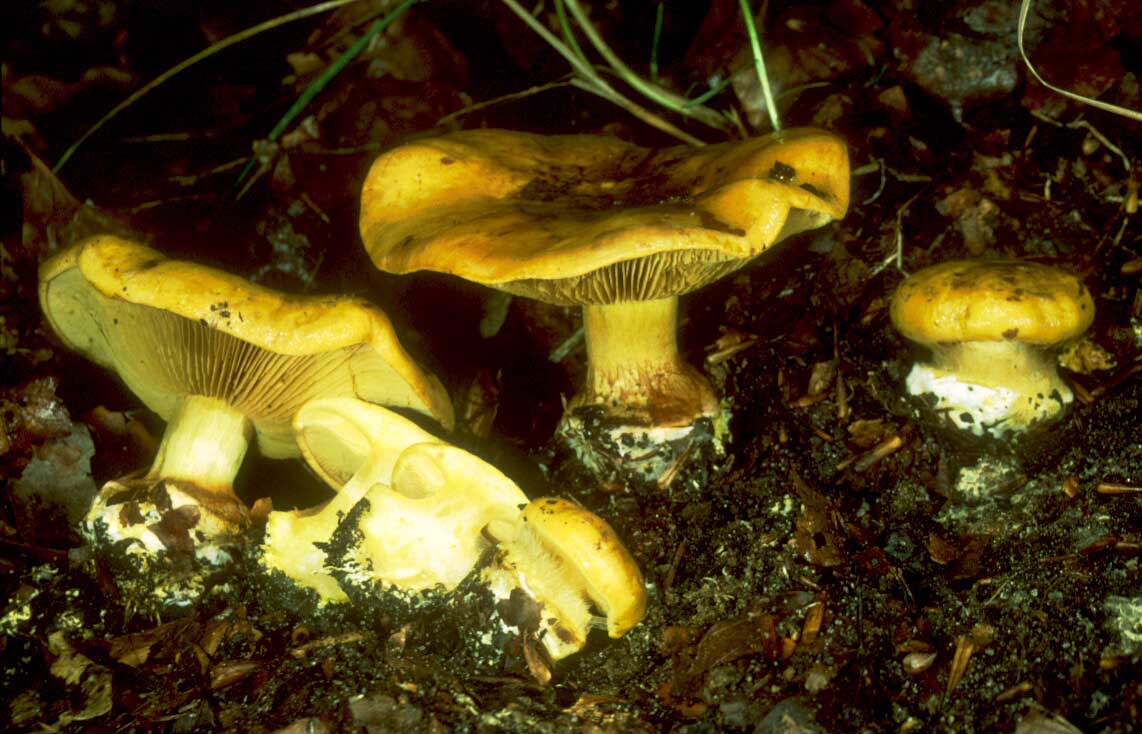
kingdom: Fungi
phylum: Basidiomycota
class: Agaricomycetes
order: Agaricales
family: Cortinariaceae
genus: Calonarius
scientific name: Calonarius citrinus
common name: citrongul slørhat
